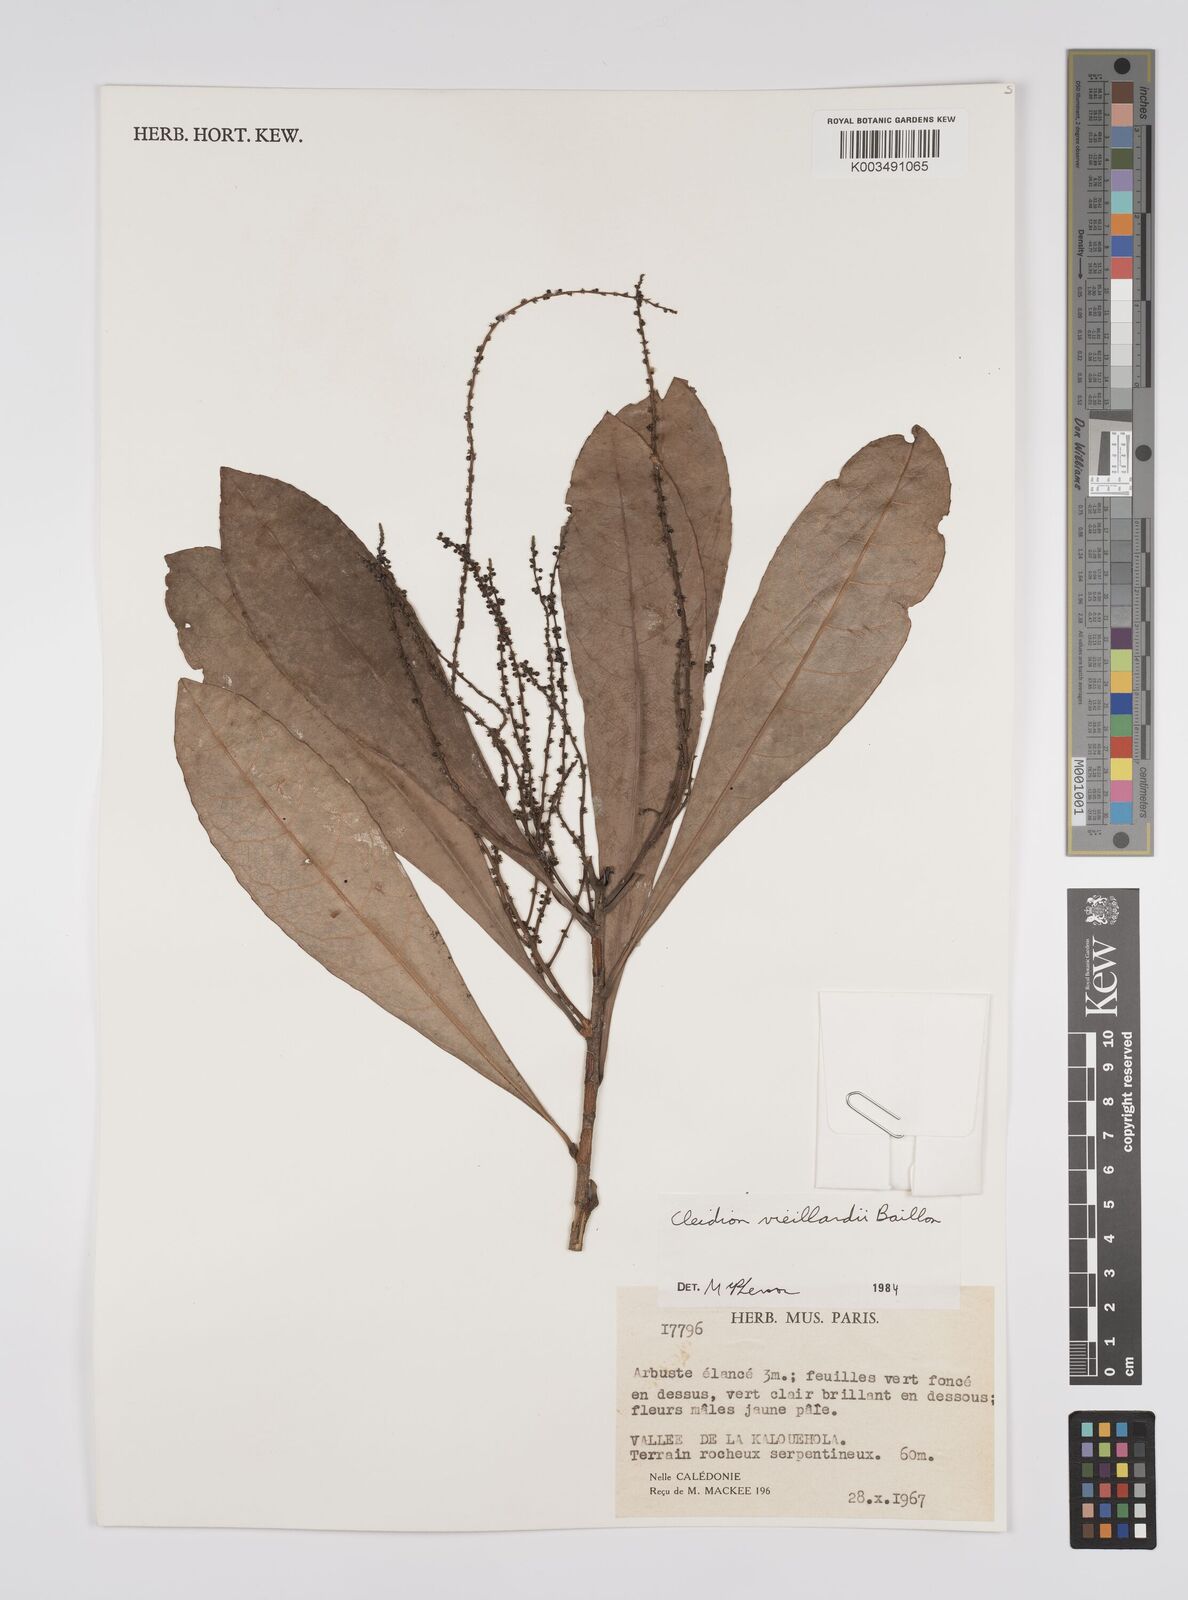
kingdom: Plantae
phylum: Tracheophyta
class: Magnoliopsida
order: Malpighiales
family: Euphorbiaceae
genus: Cleidion
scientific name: Cleidion vieillardii
